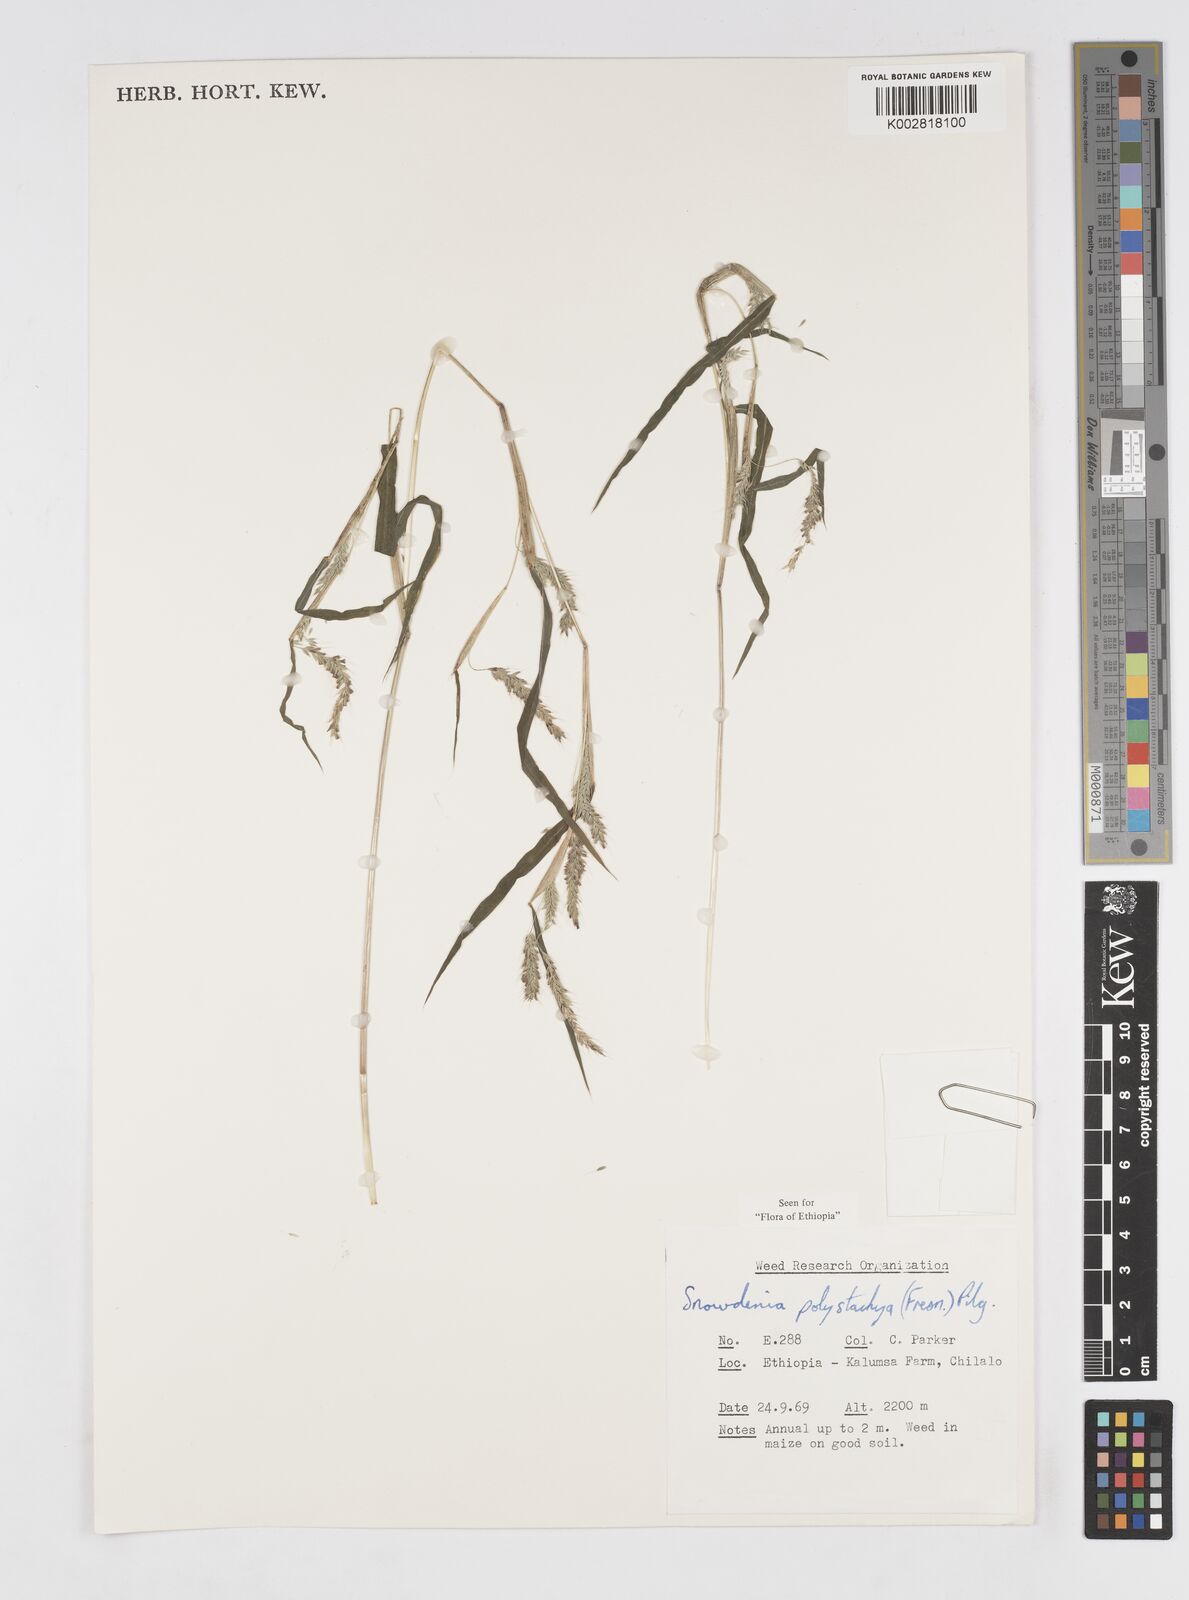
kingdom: Plantae
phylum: Tracheophyta
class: Liliopsida
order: Poales
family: Poaceae
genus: Snowdenia
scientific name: Snowdenia polystachya
